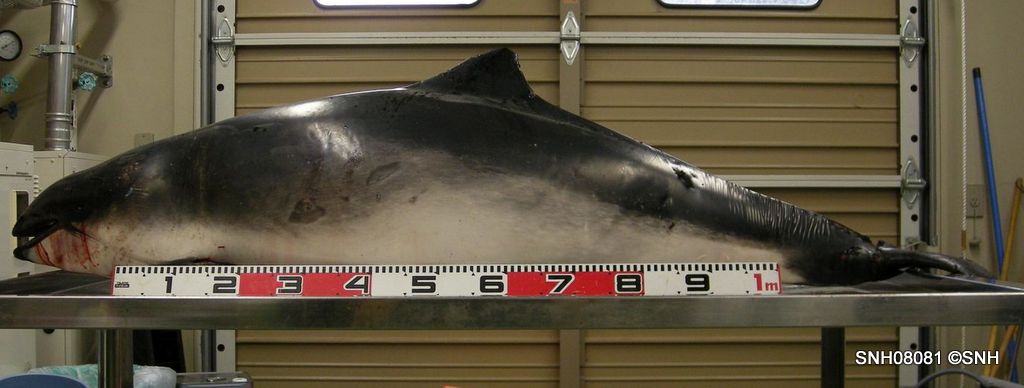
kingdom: Animalia
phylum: Chordata
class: Mammalia
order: Cetacea
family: Phocoenidae
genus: Phocoena
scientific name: Phocoena phocoena
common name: Harbour porpoise
